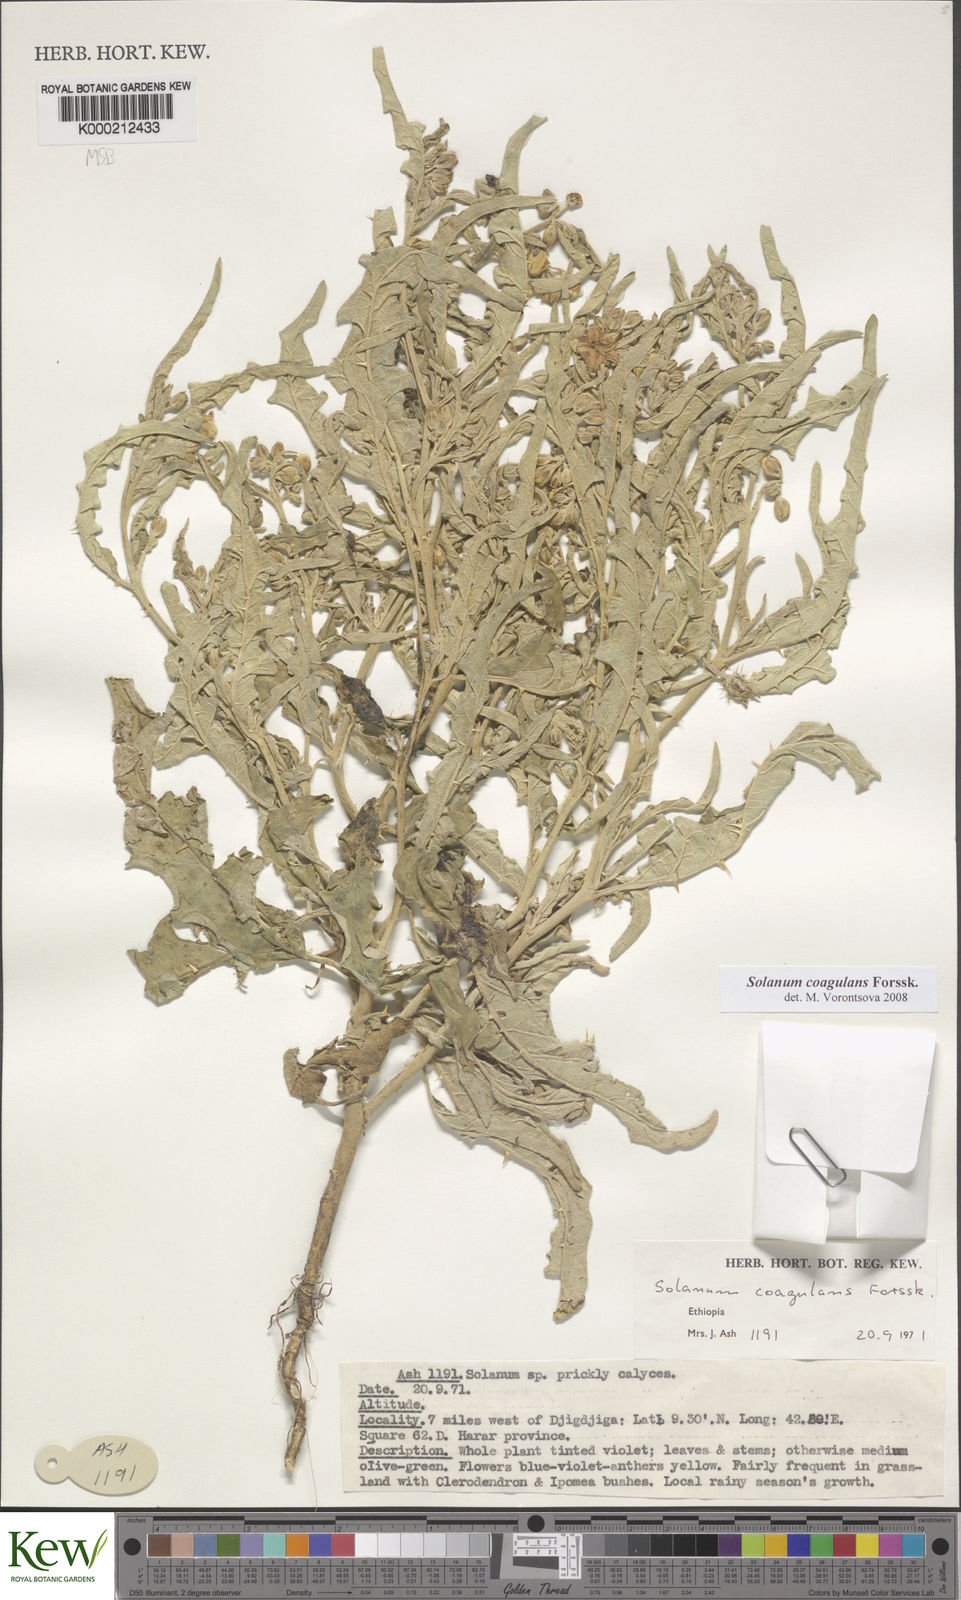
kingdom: Plantae
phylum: Tracheophyta
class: Magnoliopsida
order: Solanales
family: Solanaceae
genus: Solanum
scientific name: Solanum coagulans
